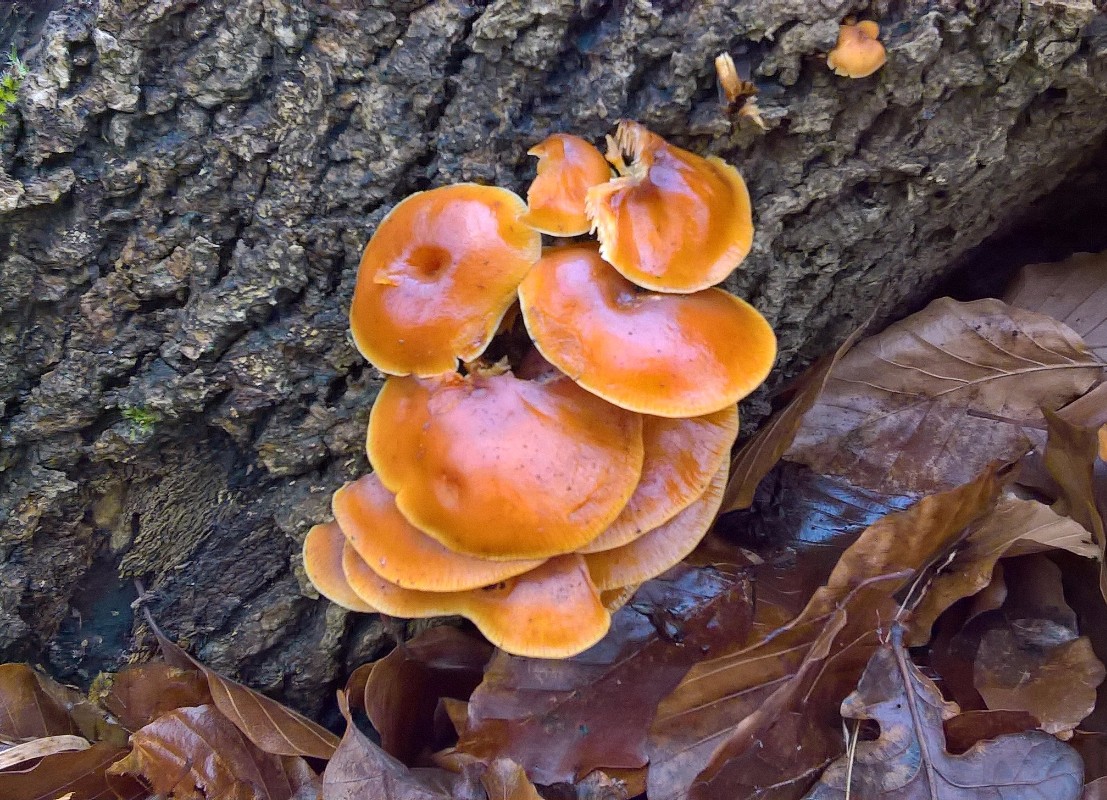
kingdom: Fungi
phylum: Basidiomycota
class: Agaricomycetes
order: Agaricales
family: Physalacriaceae
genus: Flammulina
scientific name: Flammulina velutipes
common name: gul fløjlsfod
